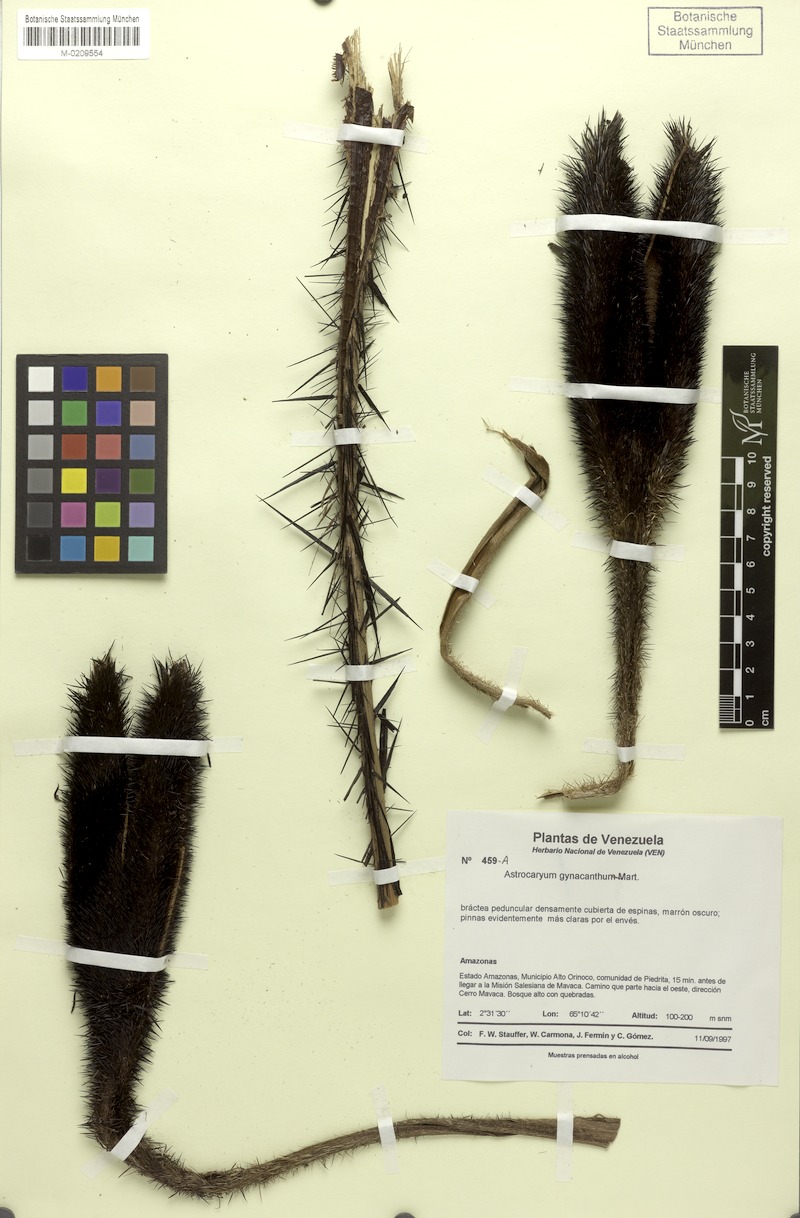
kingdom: Plantae
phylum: Tracheophyta
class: Liliopsida
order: Arecales
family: Arecaceae
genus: Astrocaryum
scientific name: Astrocaryum aculeatum
